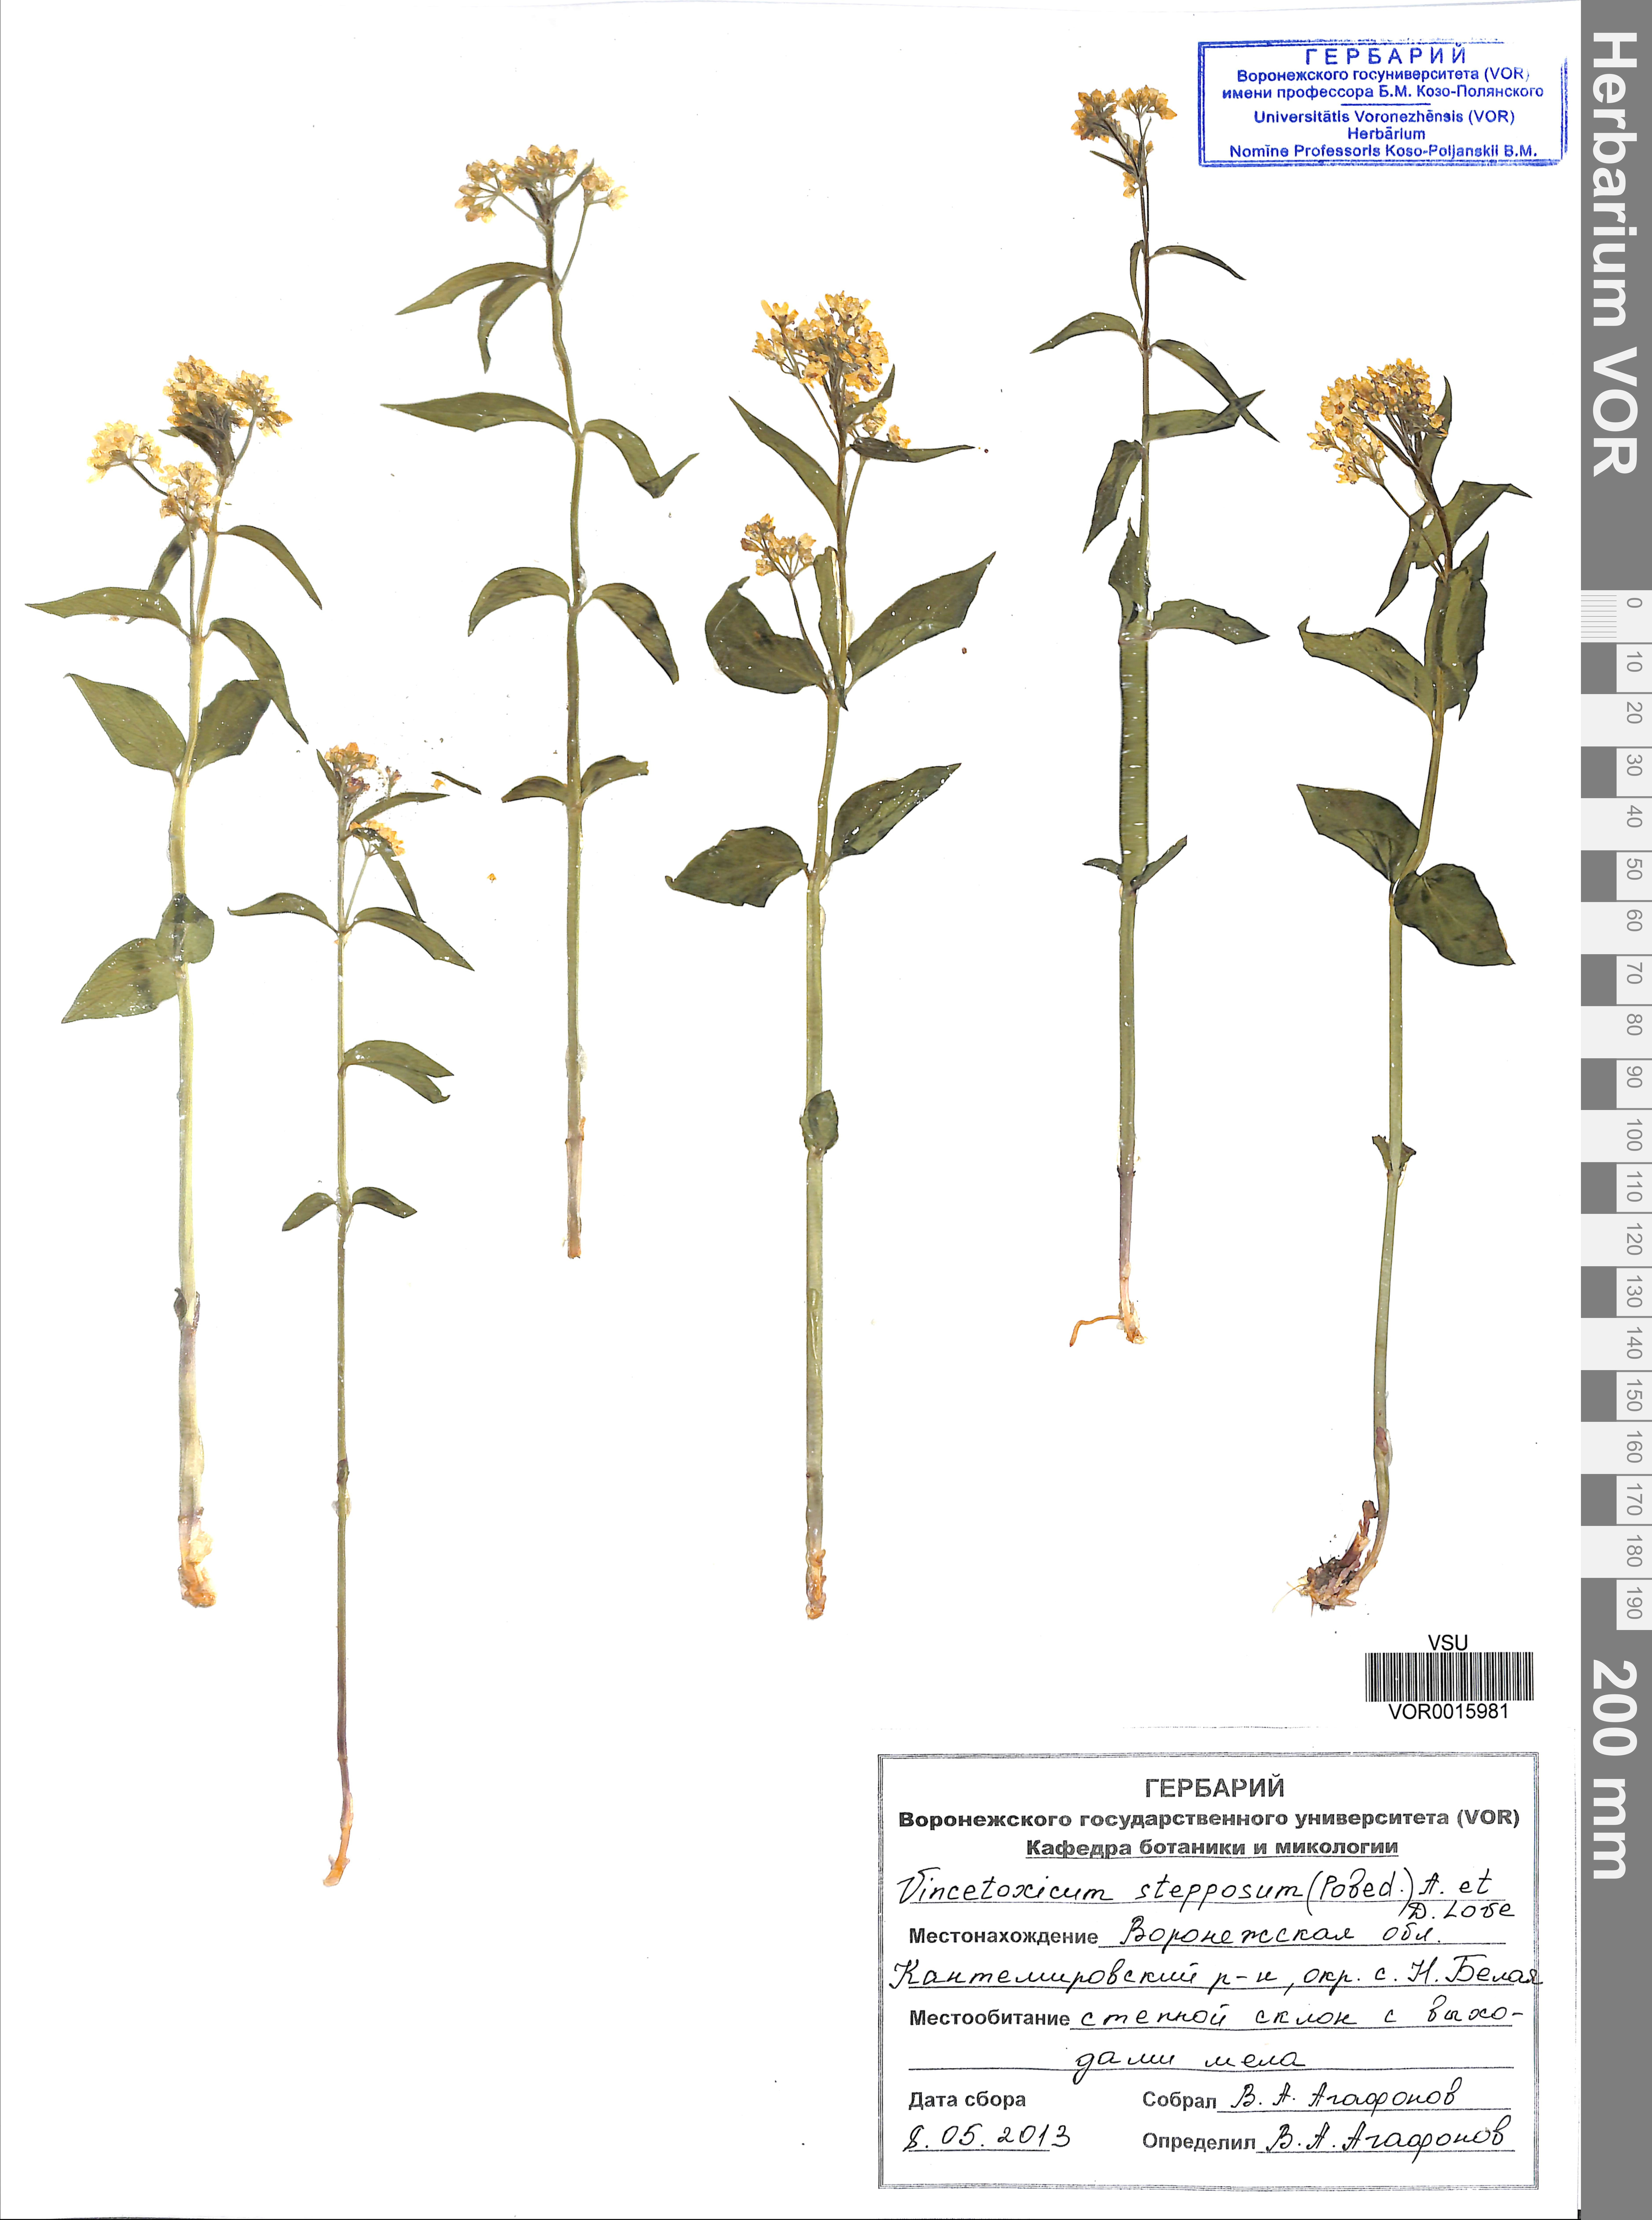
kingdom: Plantae
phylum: Tracheophyta
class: Magnoliopsida
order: Gentianales
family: Apocynaceae
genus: Vincetoxicum
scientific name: Vincetoxicum hirundinaria
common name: White swallowwort
